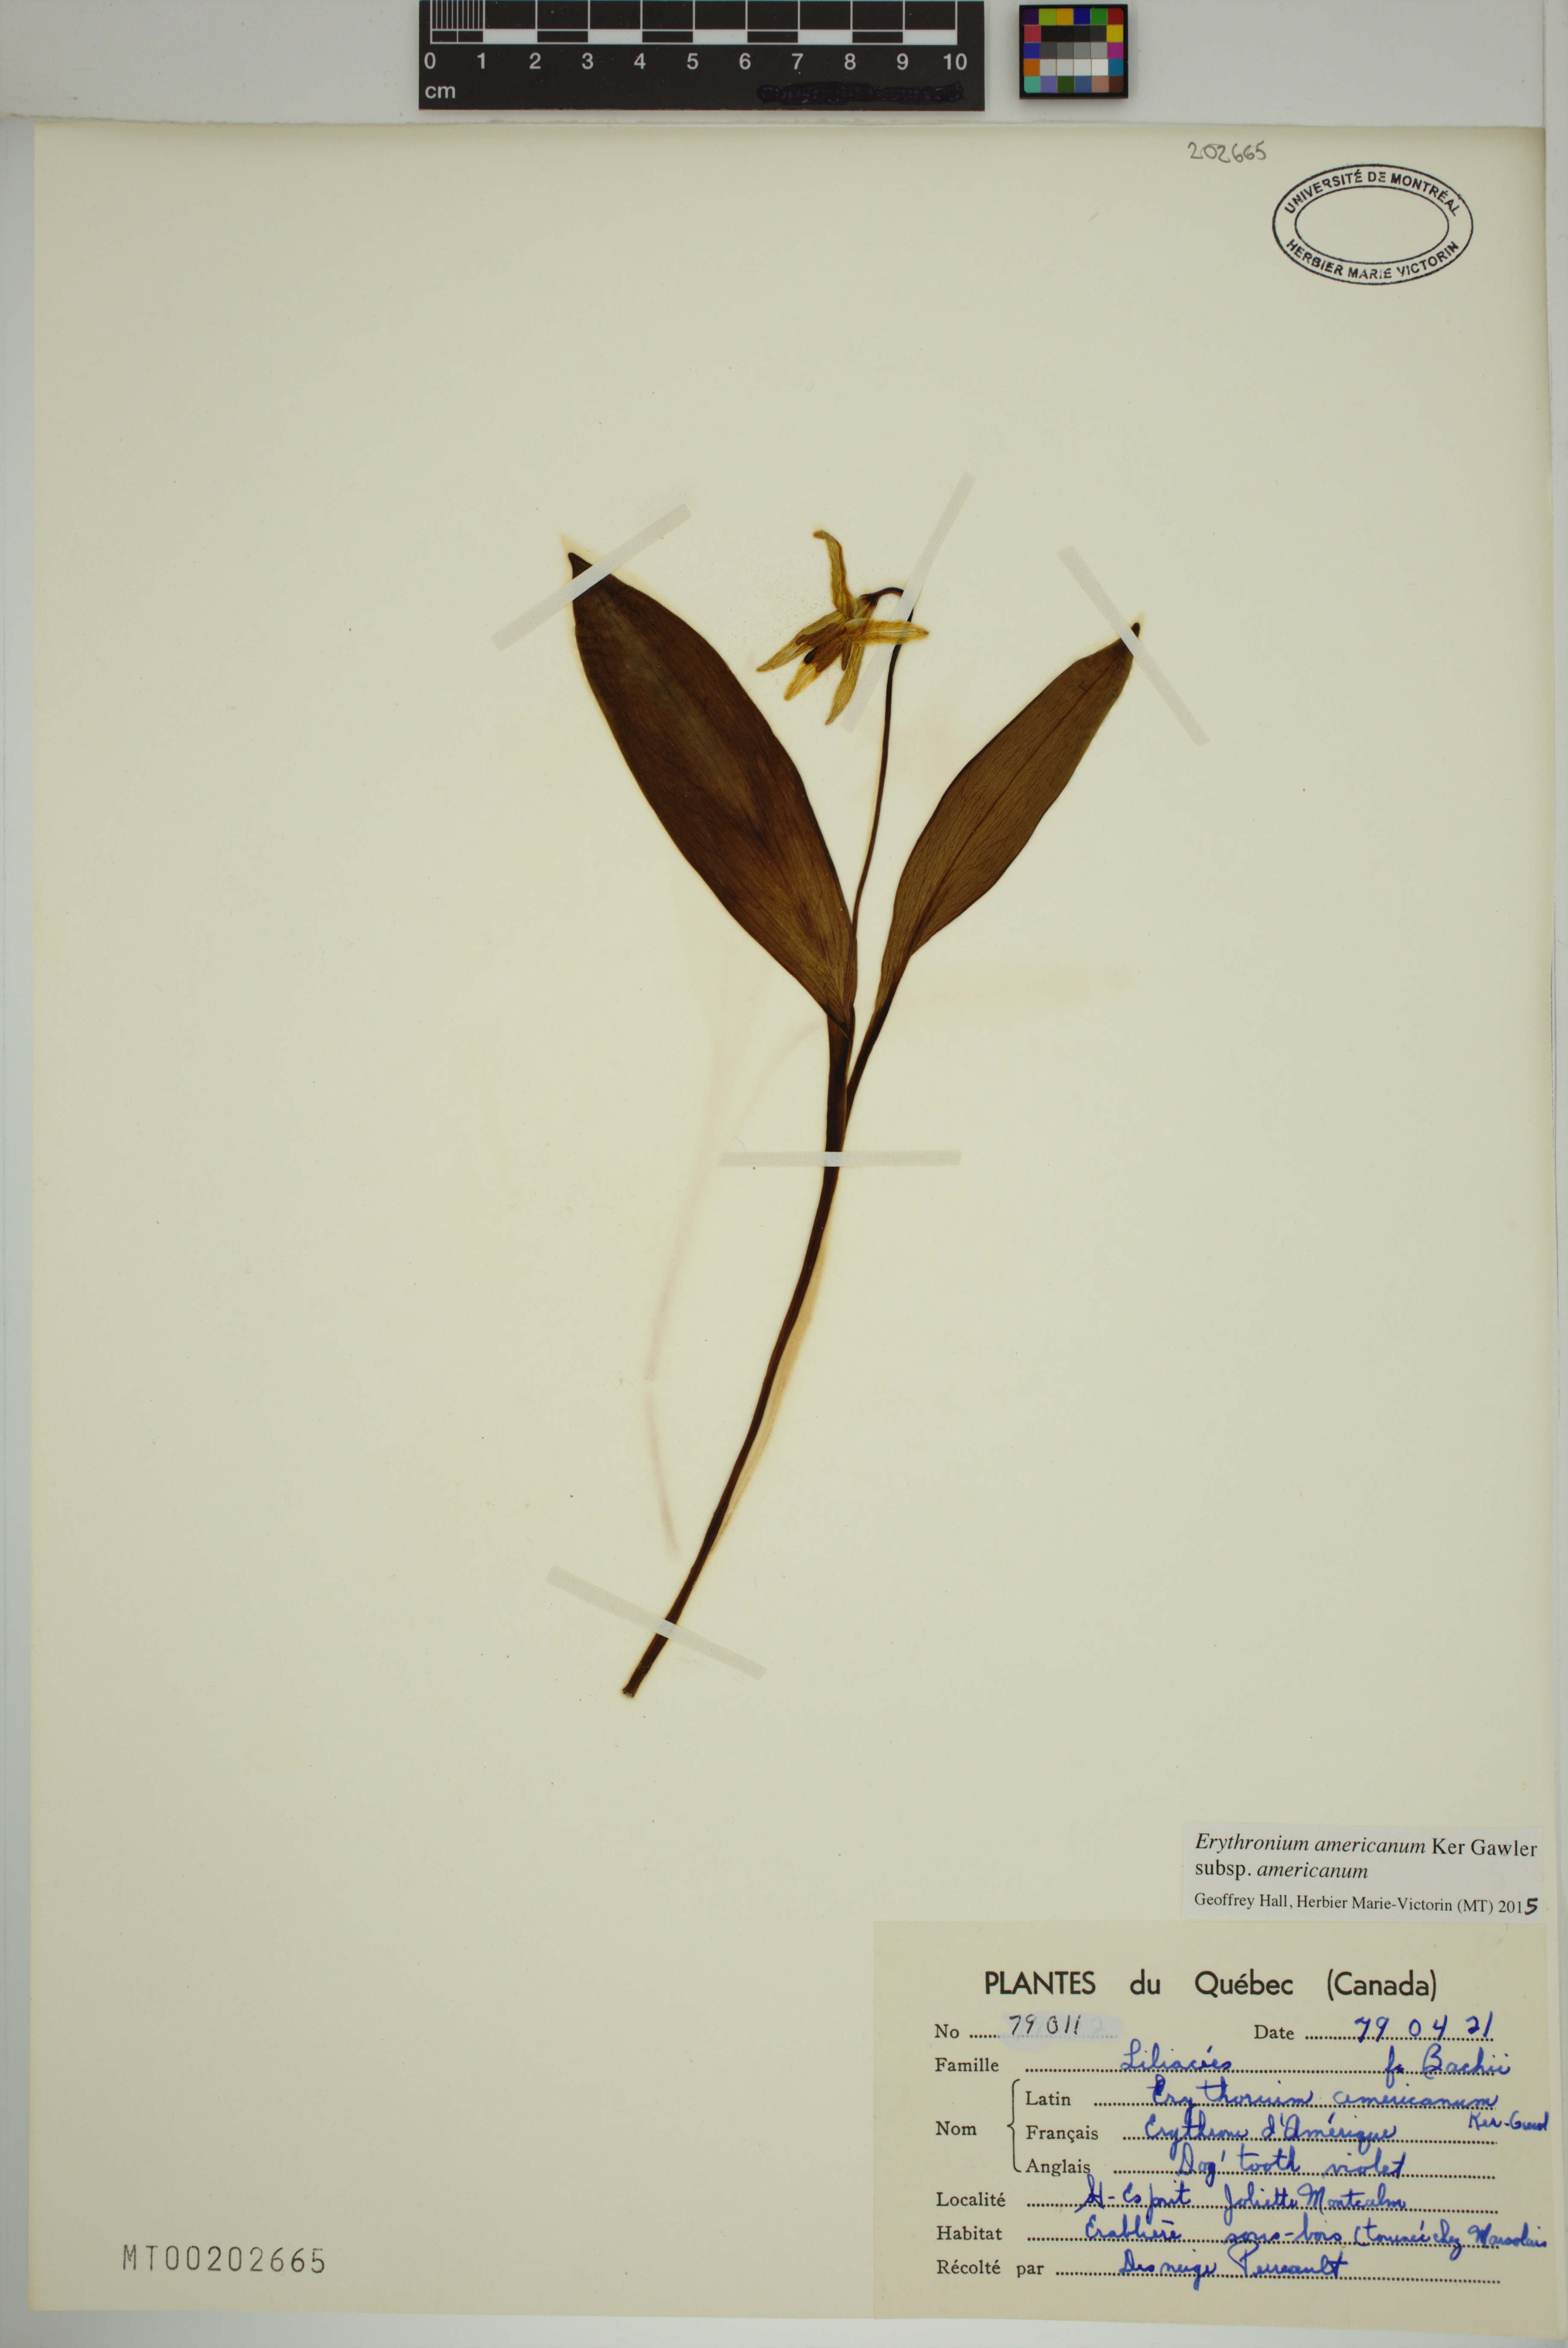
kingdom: Plantae
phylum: Tracheophyta
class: Liliopsida
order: Liliales
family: Liliaceae
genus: Erythronium
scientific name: Erythronium americanum
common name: Yellow adder's-tongue
